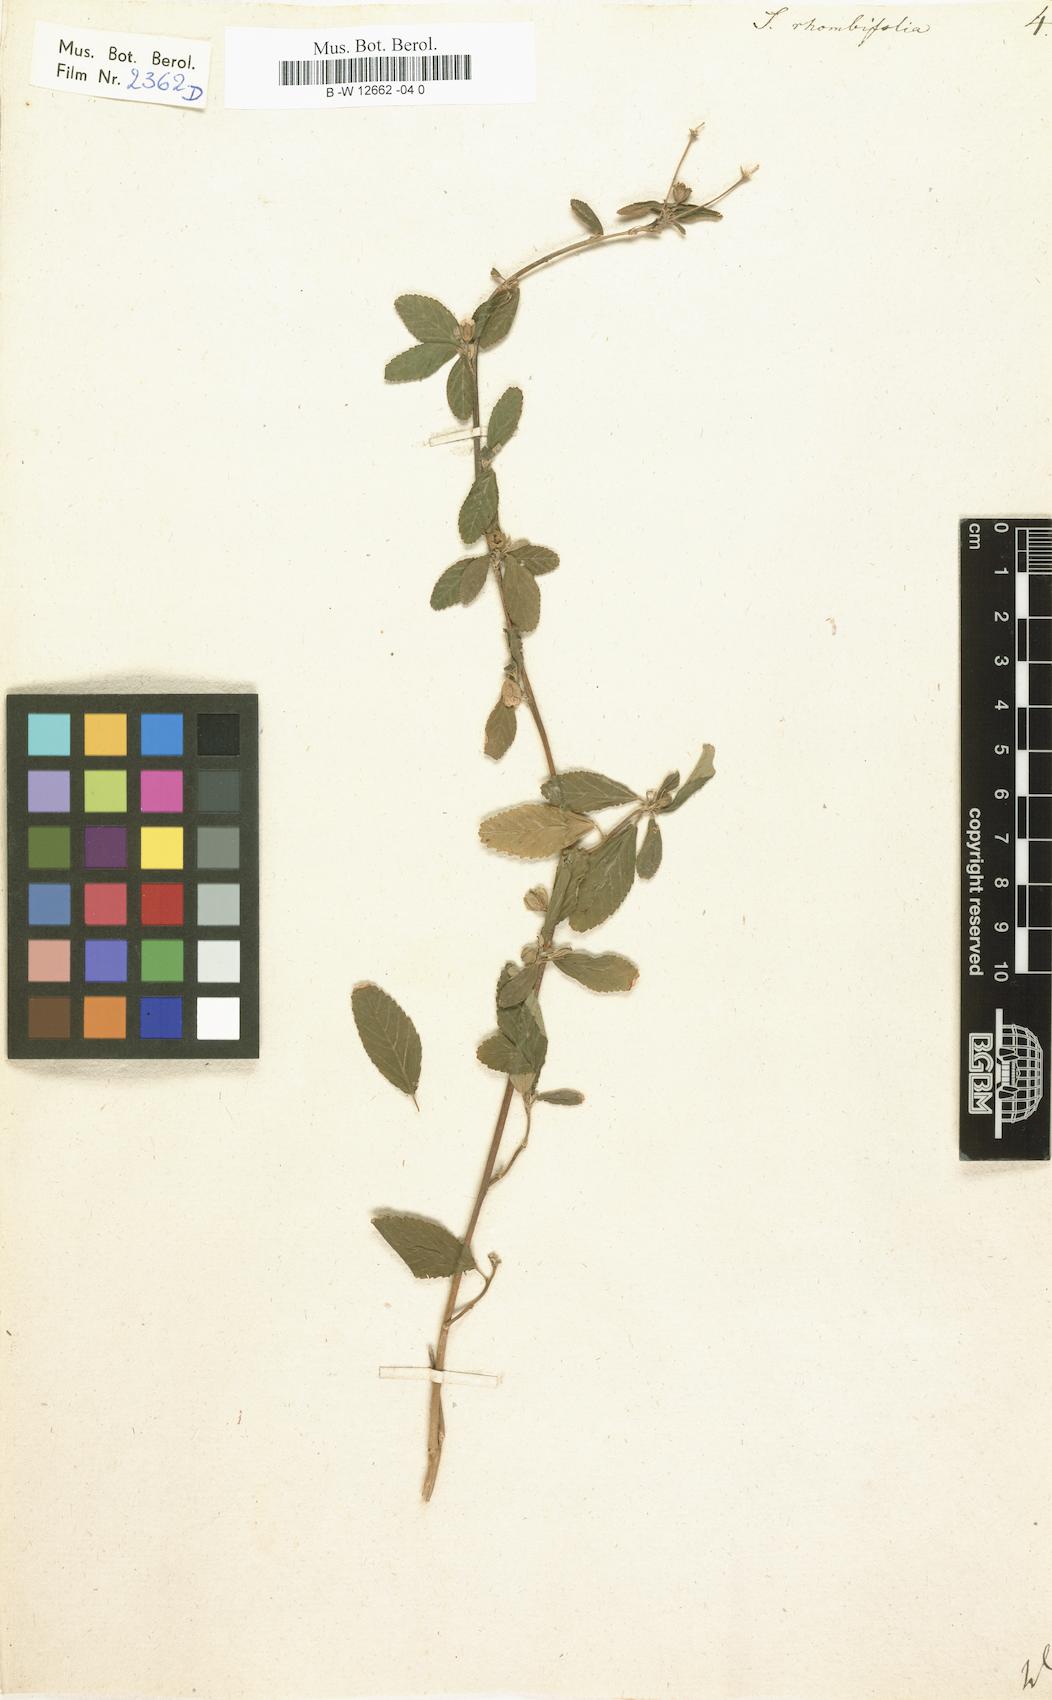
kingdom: Plantae
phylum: Tracheophyta
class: Magnoliopsida
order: Malvales
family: Malvaceae
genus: Sida
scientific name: Sida rhombifolia
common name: Queensland-hemp
